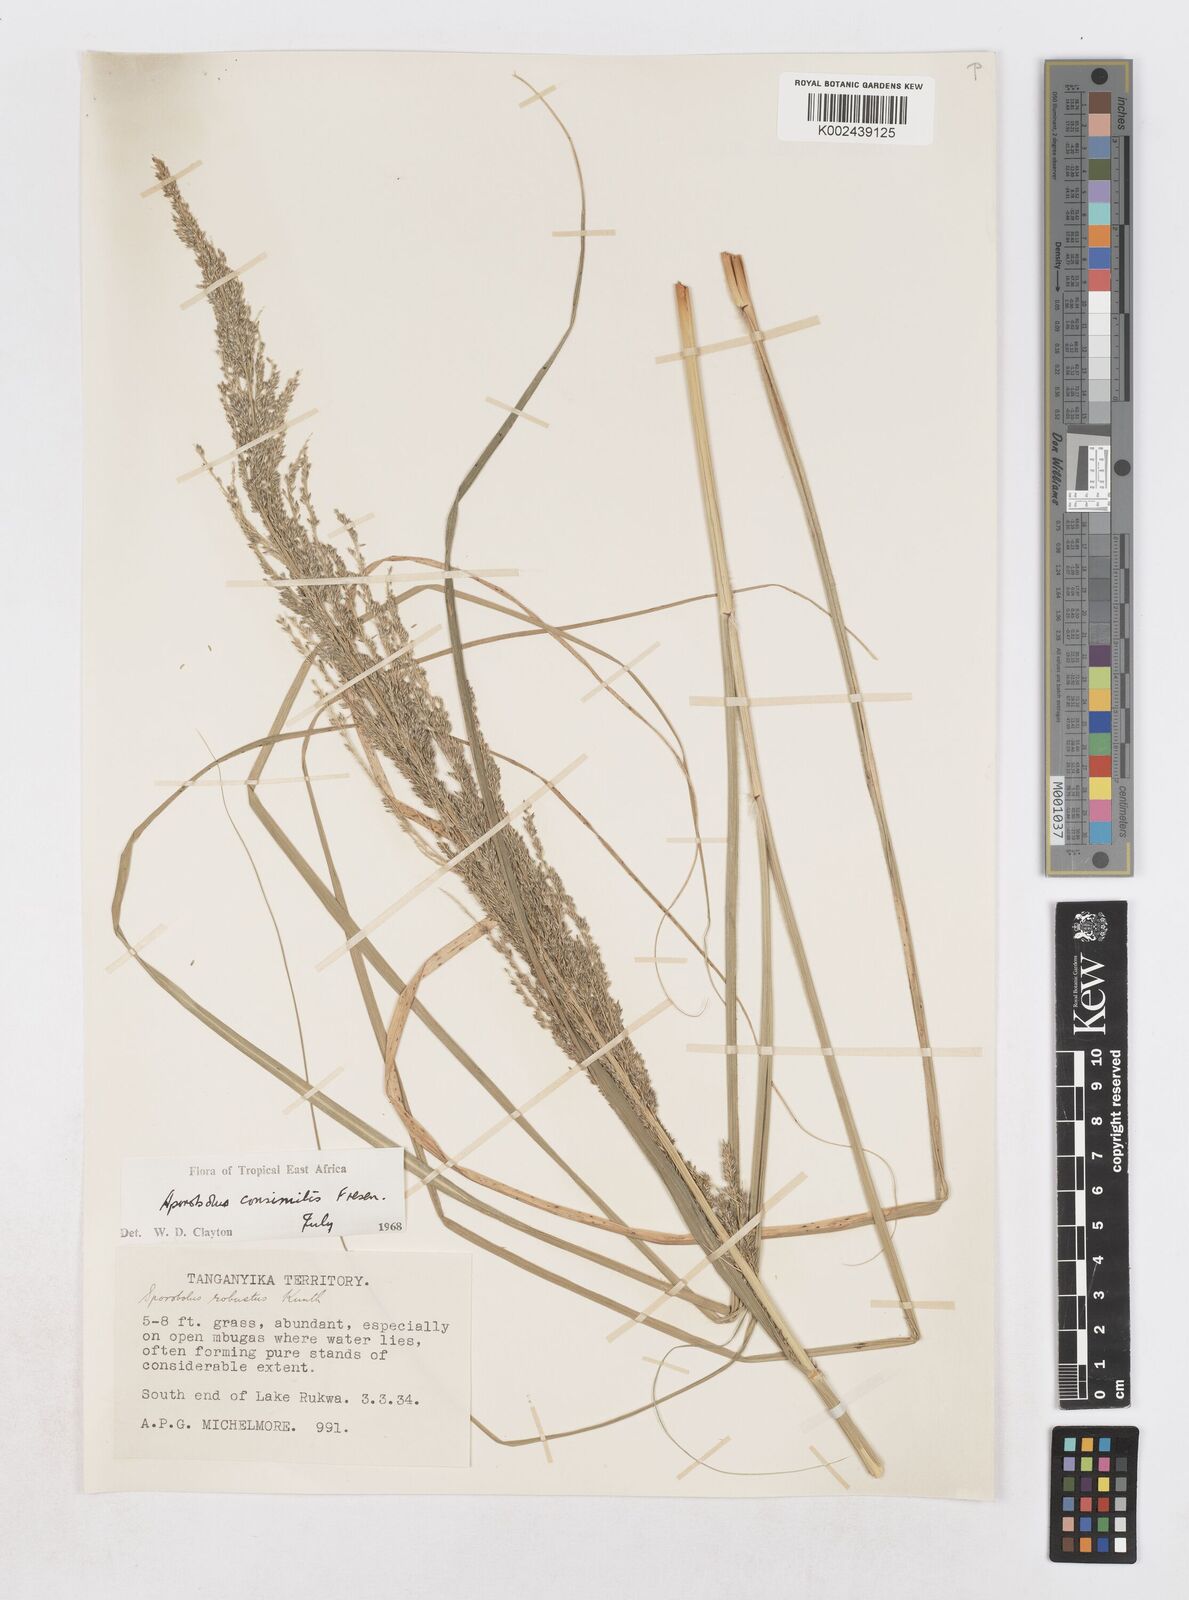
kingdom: Plantae
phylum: Tracheophyta
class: Liliopsida
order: Poales
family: Poaceae
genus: Sporobolus
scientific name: Sporobolus consimilis
